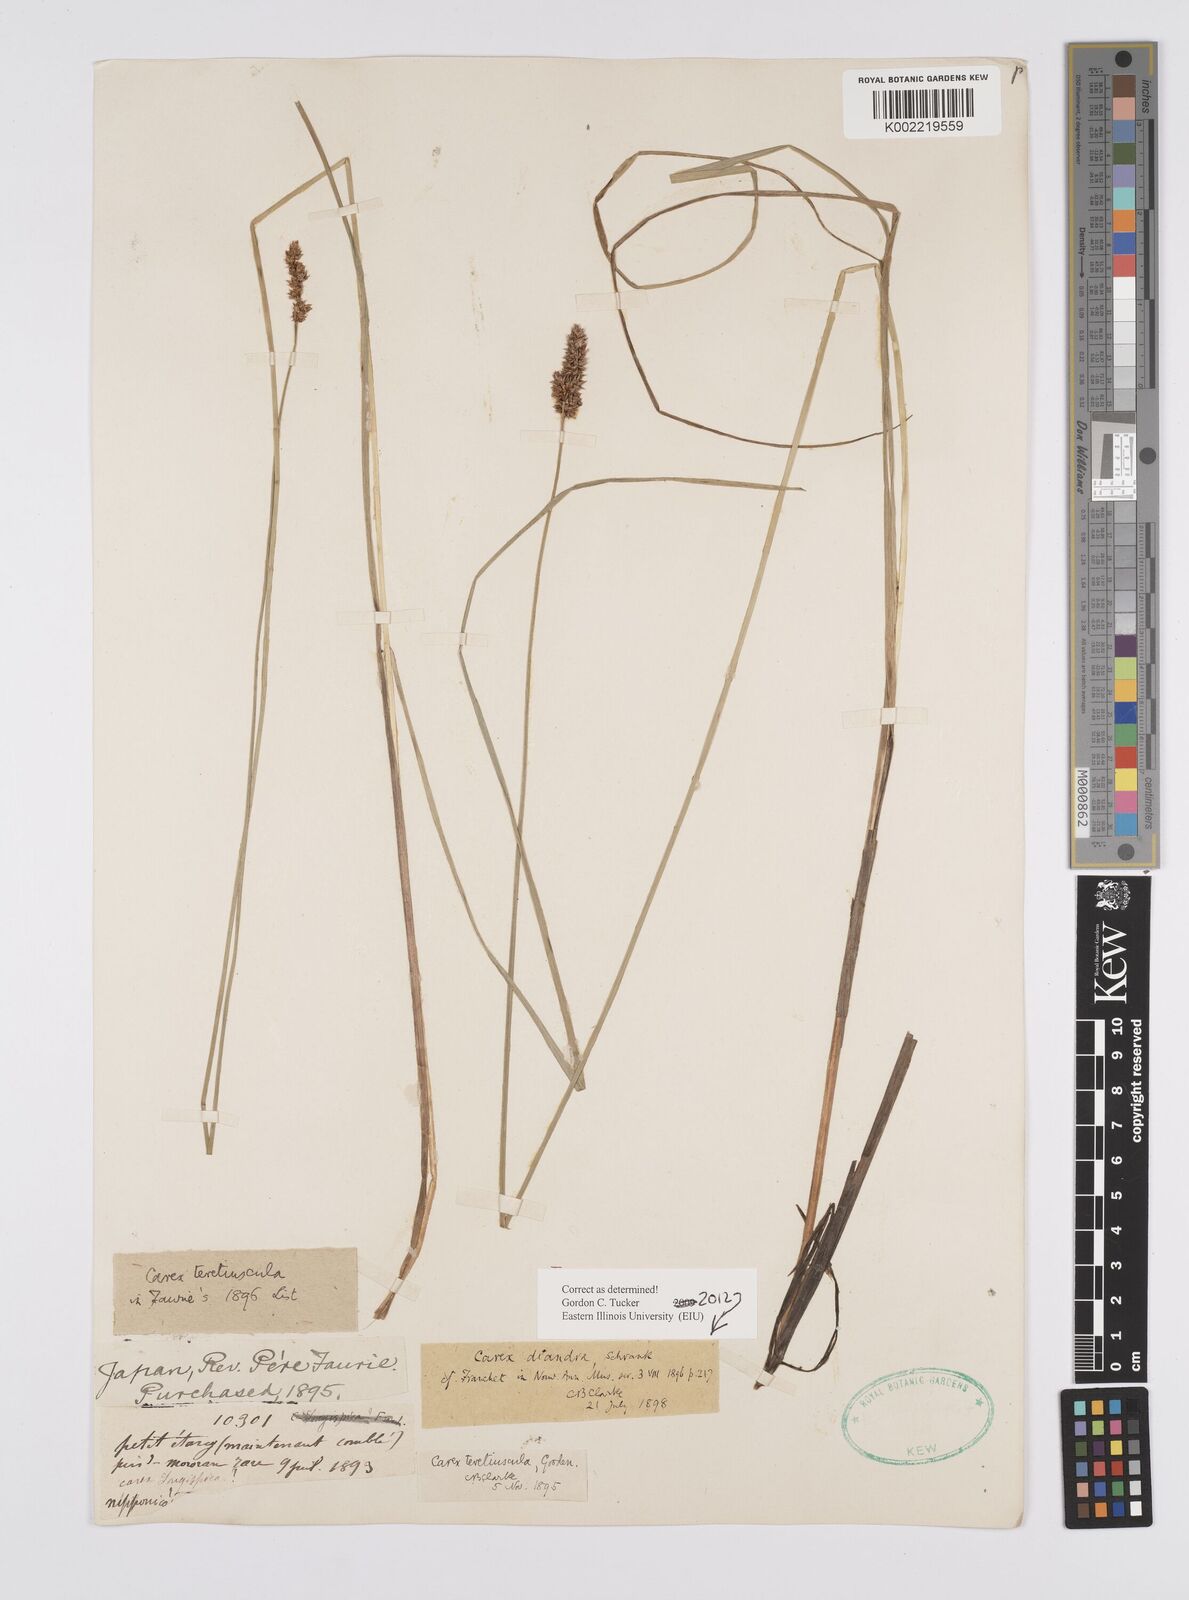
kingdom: Plantae
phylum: Tracheophyta
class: Liliopsida
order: Poales
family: Cyperaceae
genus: Carex
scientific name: Carex diandra
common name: Lesser tussock-sedge
